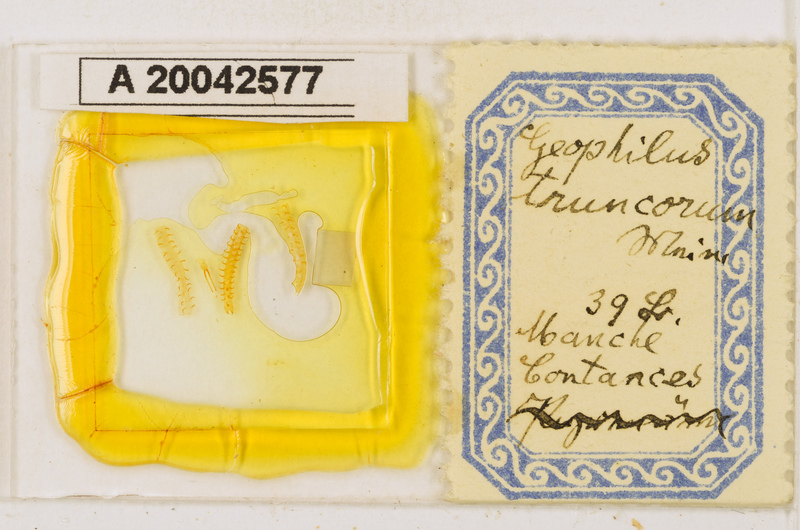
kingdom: Animalia
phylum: Arthropoda
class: Chilopoda
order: Geophilomorpha
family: Geophilidae
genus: Geophilus
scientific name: Geophilus truncorum
